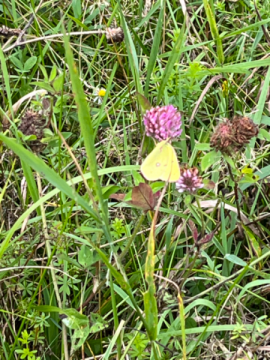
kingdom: Animalia
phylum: Arthropoda
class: Insecta
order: Lepidoptera
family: Pieridae
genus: Colias
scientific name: Colias philodice
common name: Clouded Sulphur
